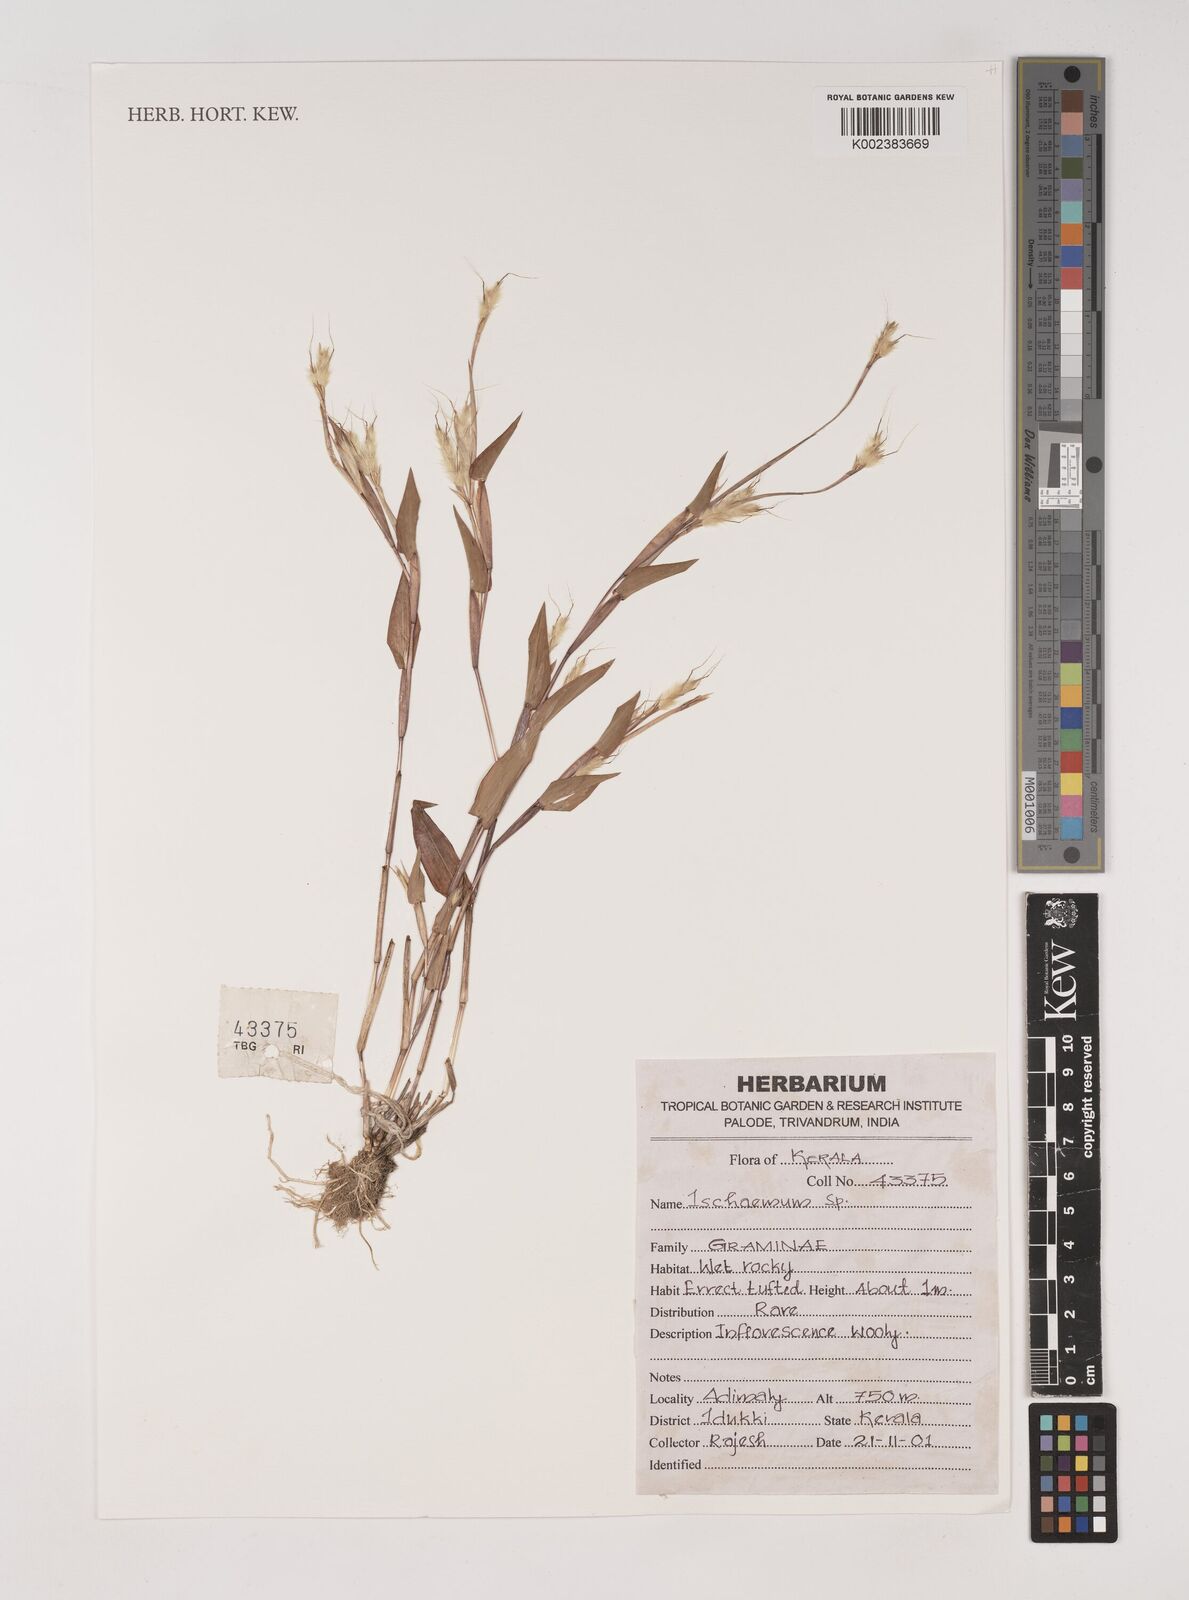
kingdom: Plantae
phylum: Tracheophyta
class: Liliopsida
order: Poales
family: Poaceae
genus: Ischaemum
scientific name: Ischaemum
